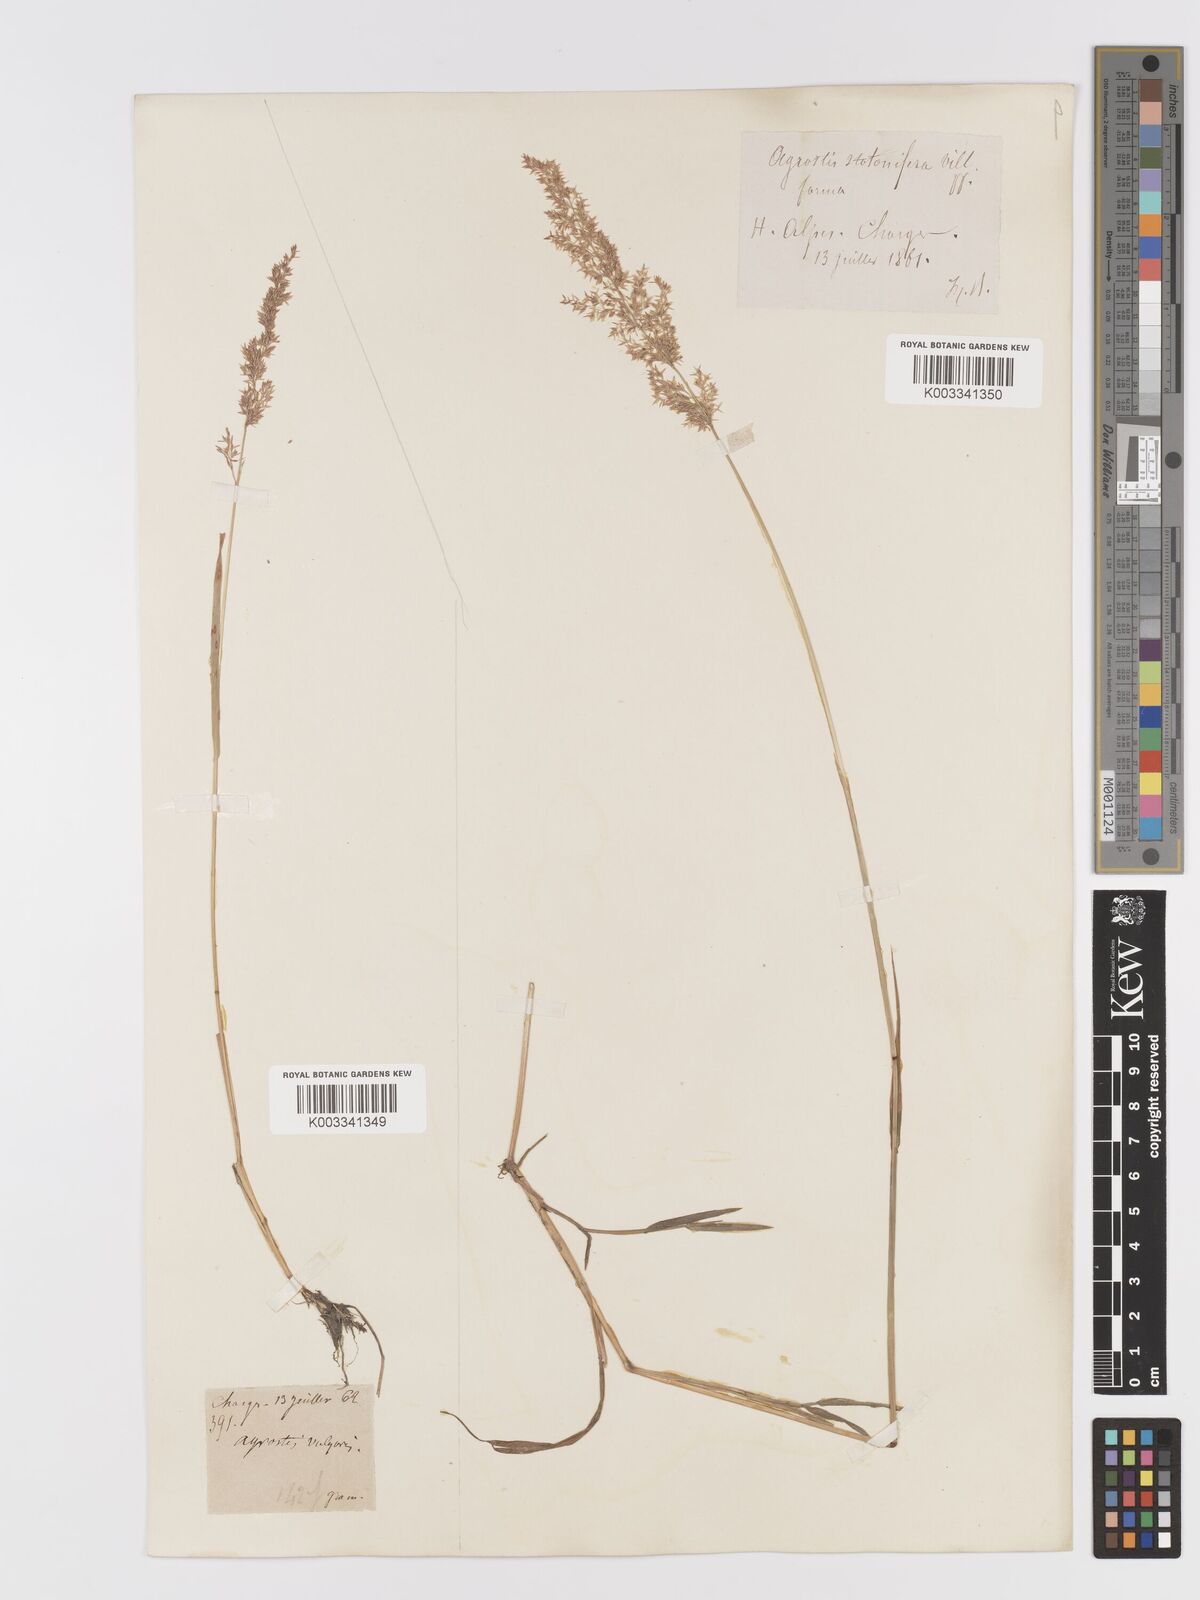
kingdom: Plantae
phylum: Tracheophyta
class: Liliopsida
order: Poales
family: Poaceae
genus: Agrostis
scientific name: Agrostis gigantea
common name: Black bent
